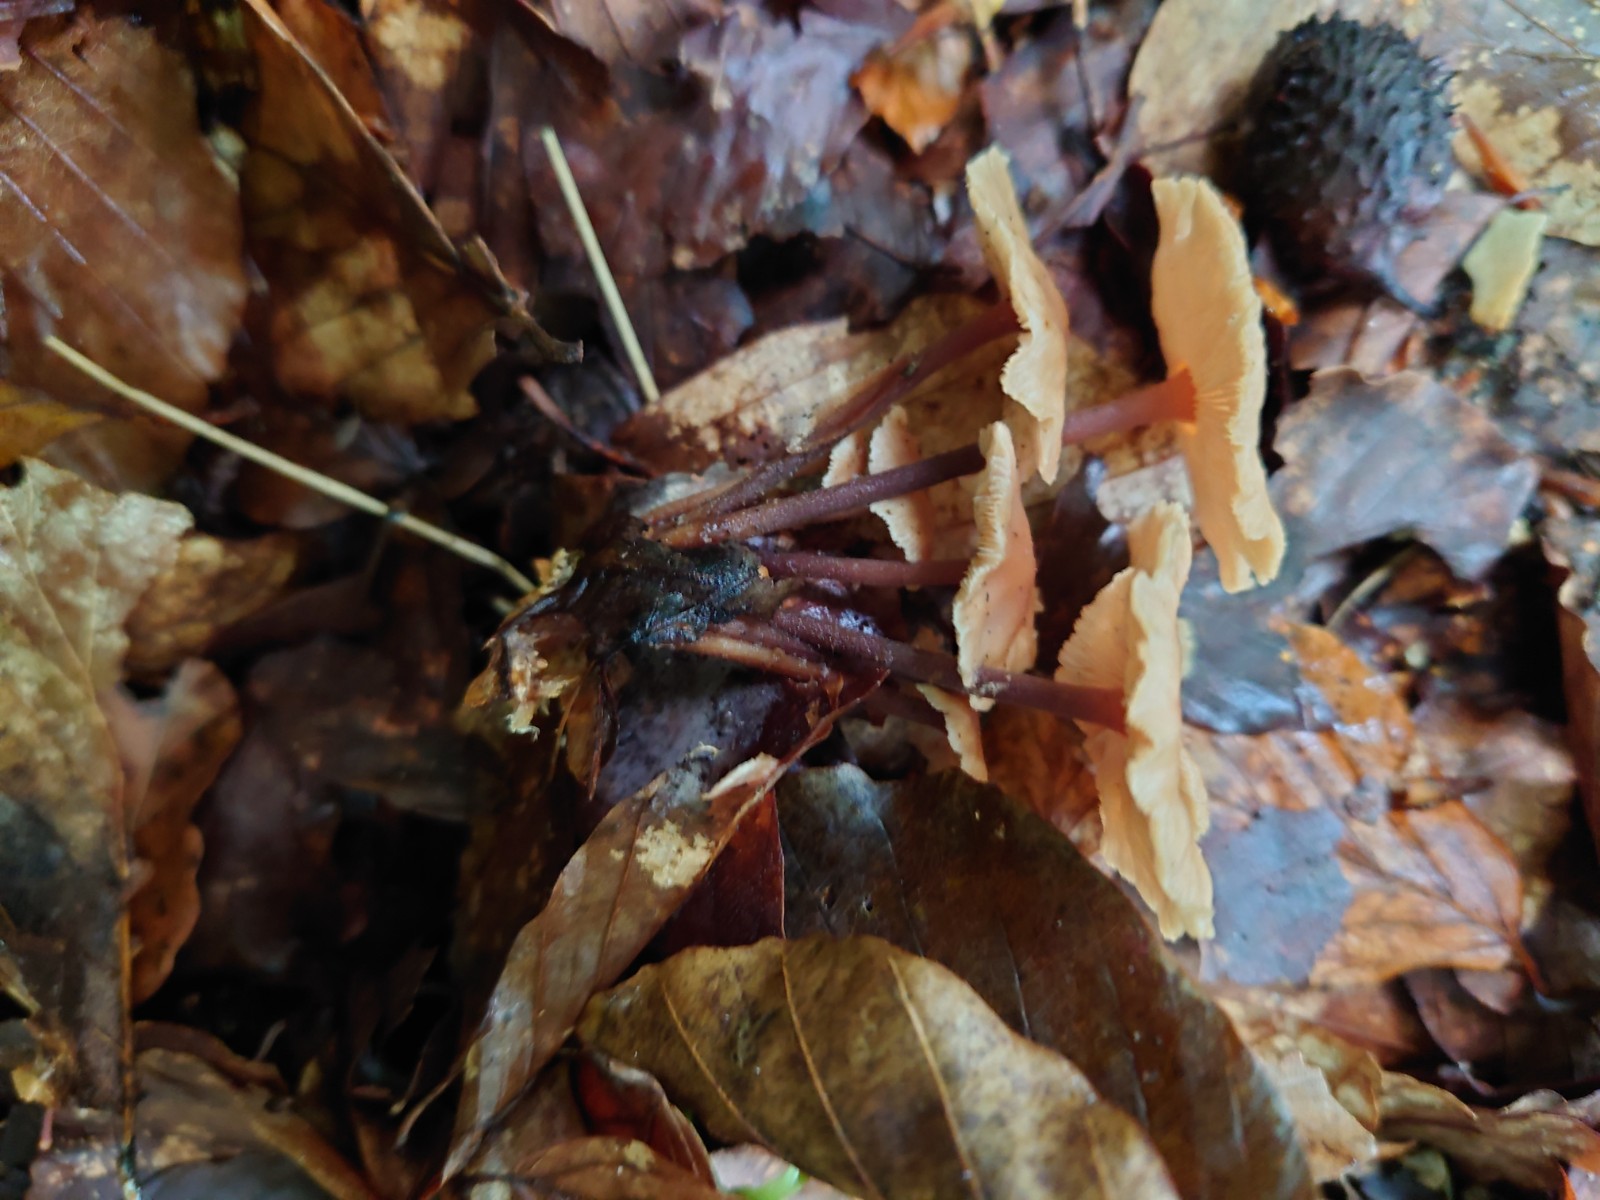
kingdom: Fungi
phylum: Basidiomycota
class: Agaricomycetes
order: Agaricales
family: Omphalotaceae
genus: Collybiopsis
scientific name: Collybiopsis confluens
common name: knippe-fladhat
